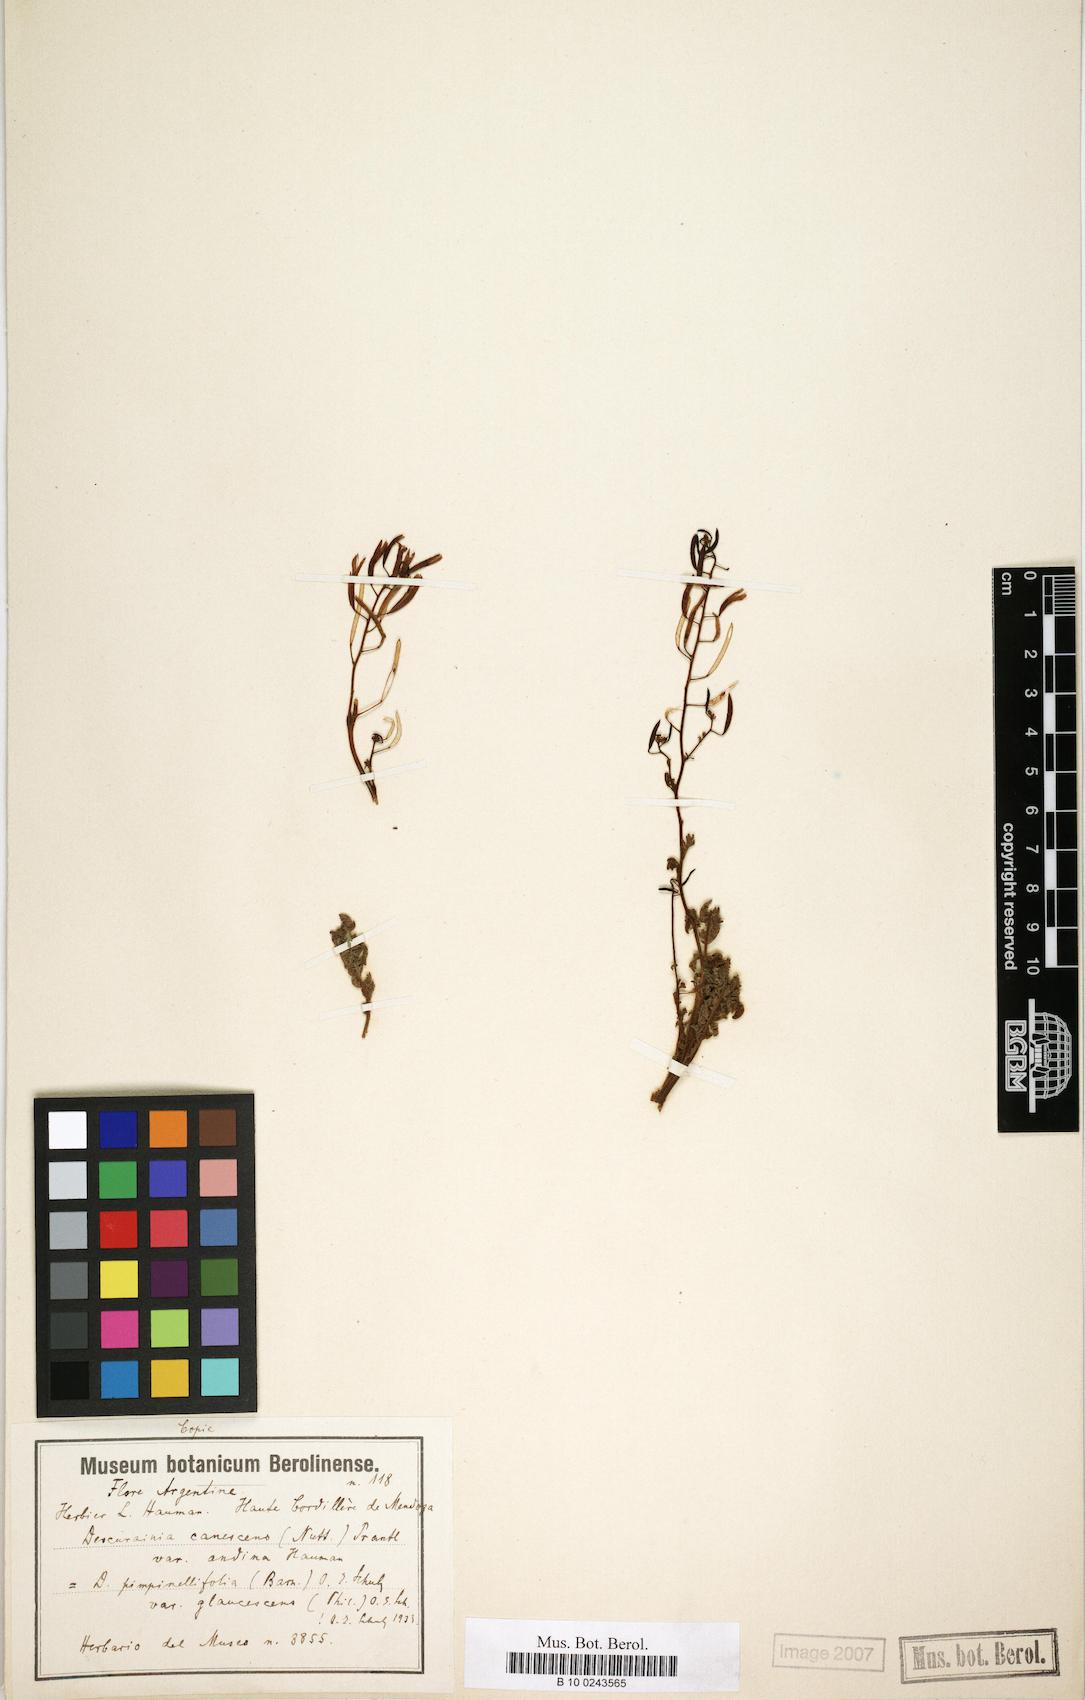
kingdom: Plantae
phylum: Tracheophyta
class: Magnoliopsida
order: Brassicales
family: Brassicaceae
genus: Descurainia
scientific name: Descurainia pinnata
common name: Western tansy mustard
